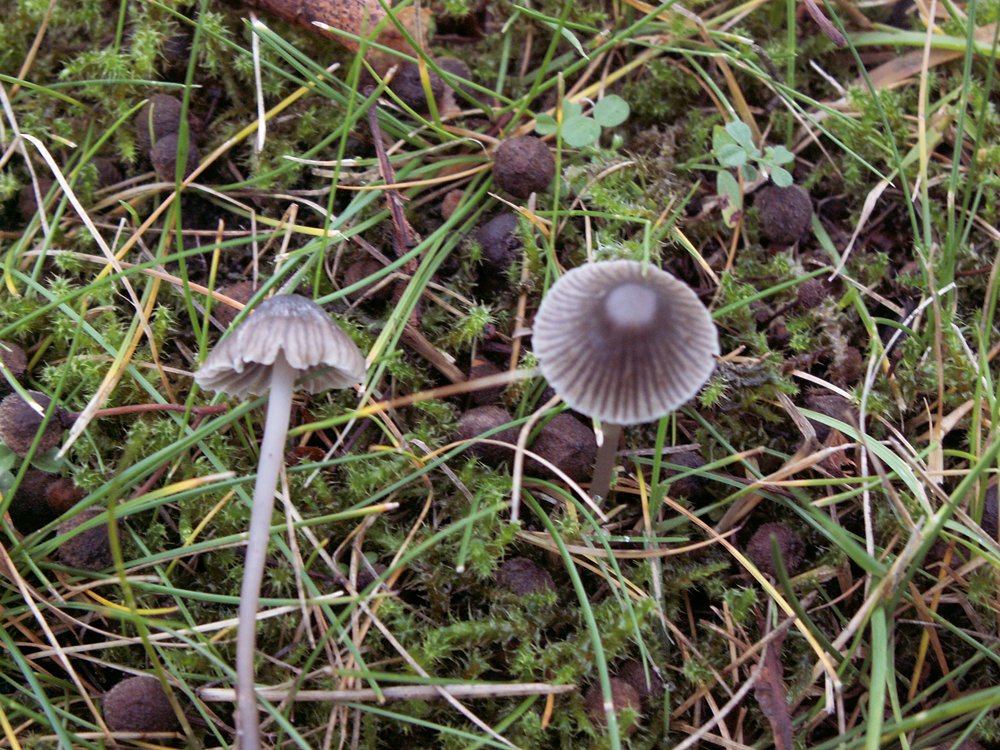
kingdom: Fungi
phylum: Basidiomycota
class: Agaricomycetes
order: Agaricales
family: Mycenaceae
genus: Mycena
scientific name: Mycena aetites
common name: plæne-huesvamp
